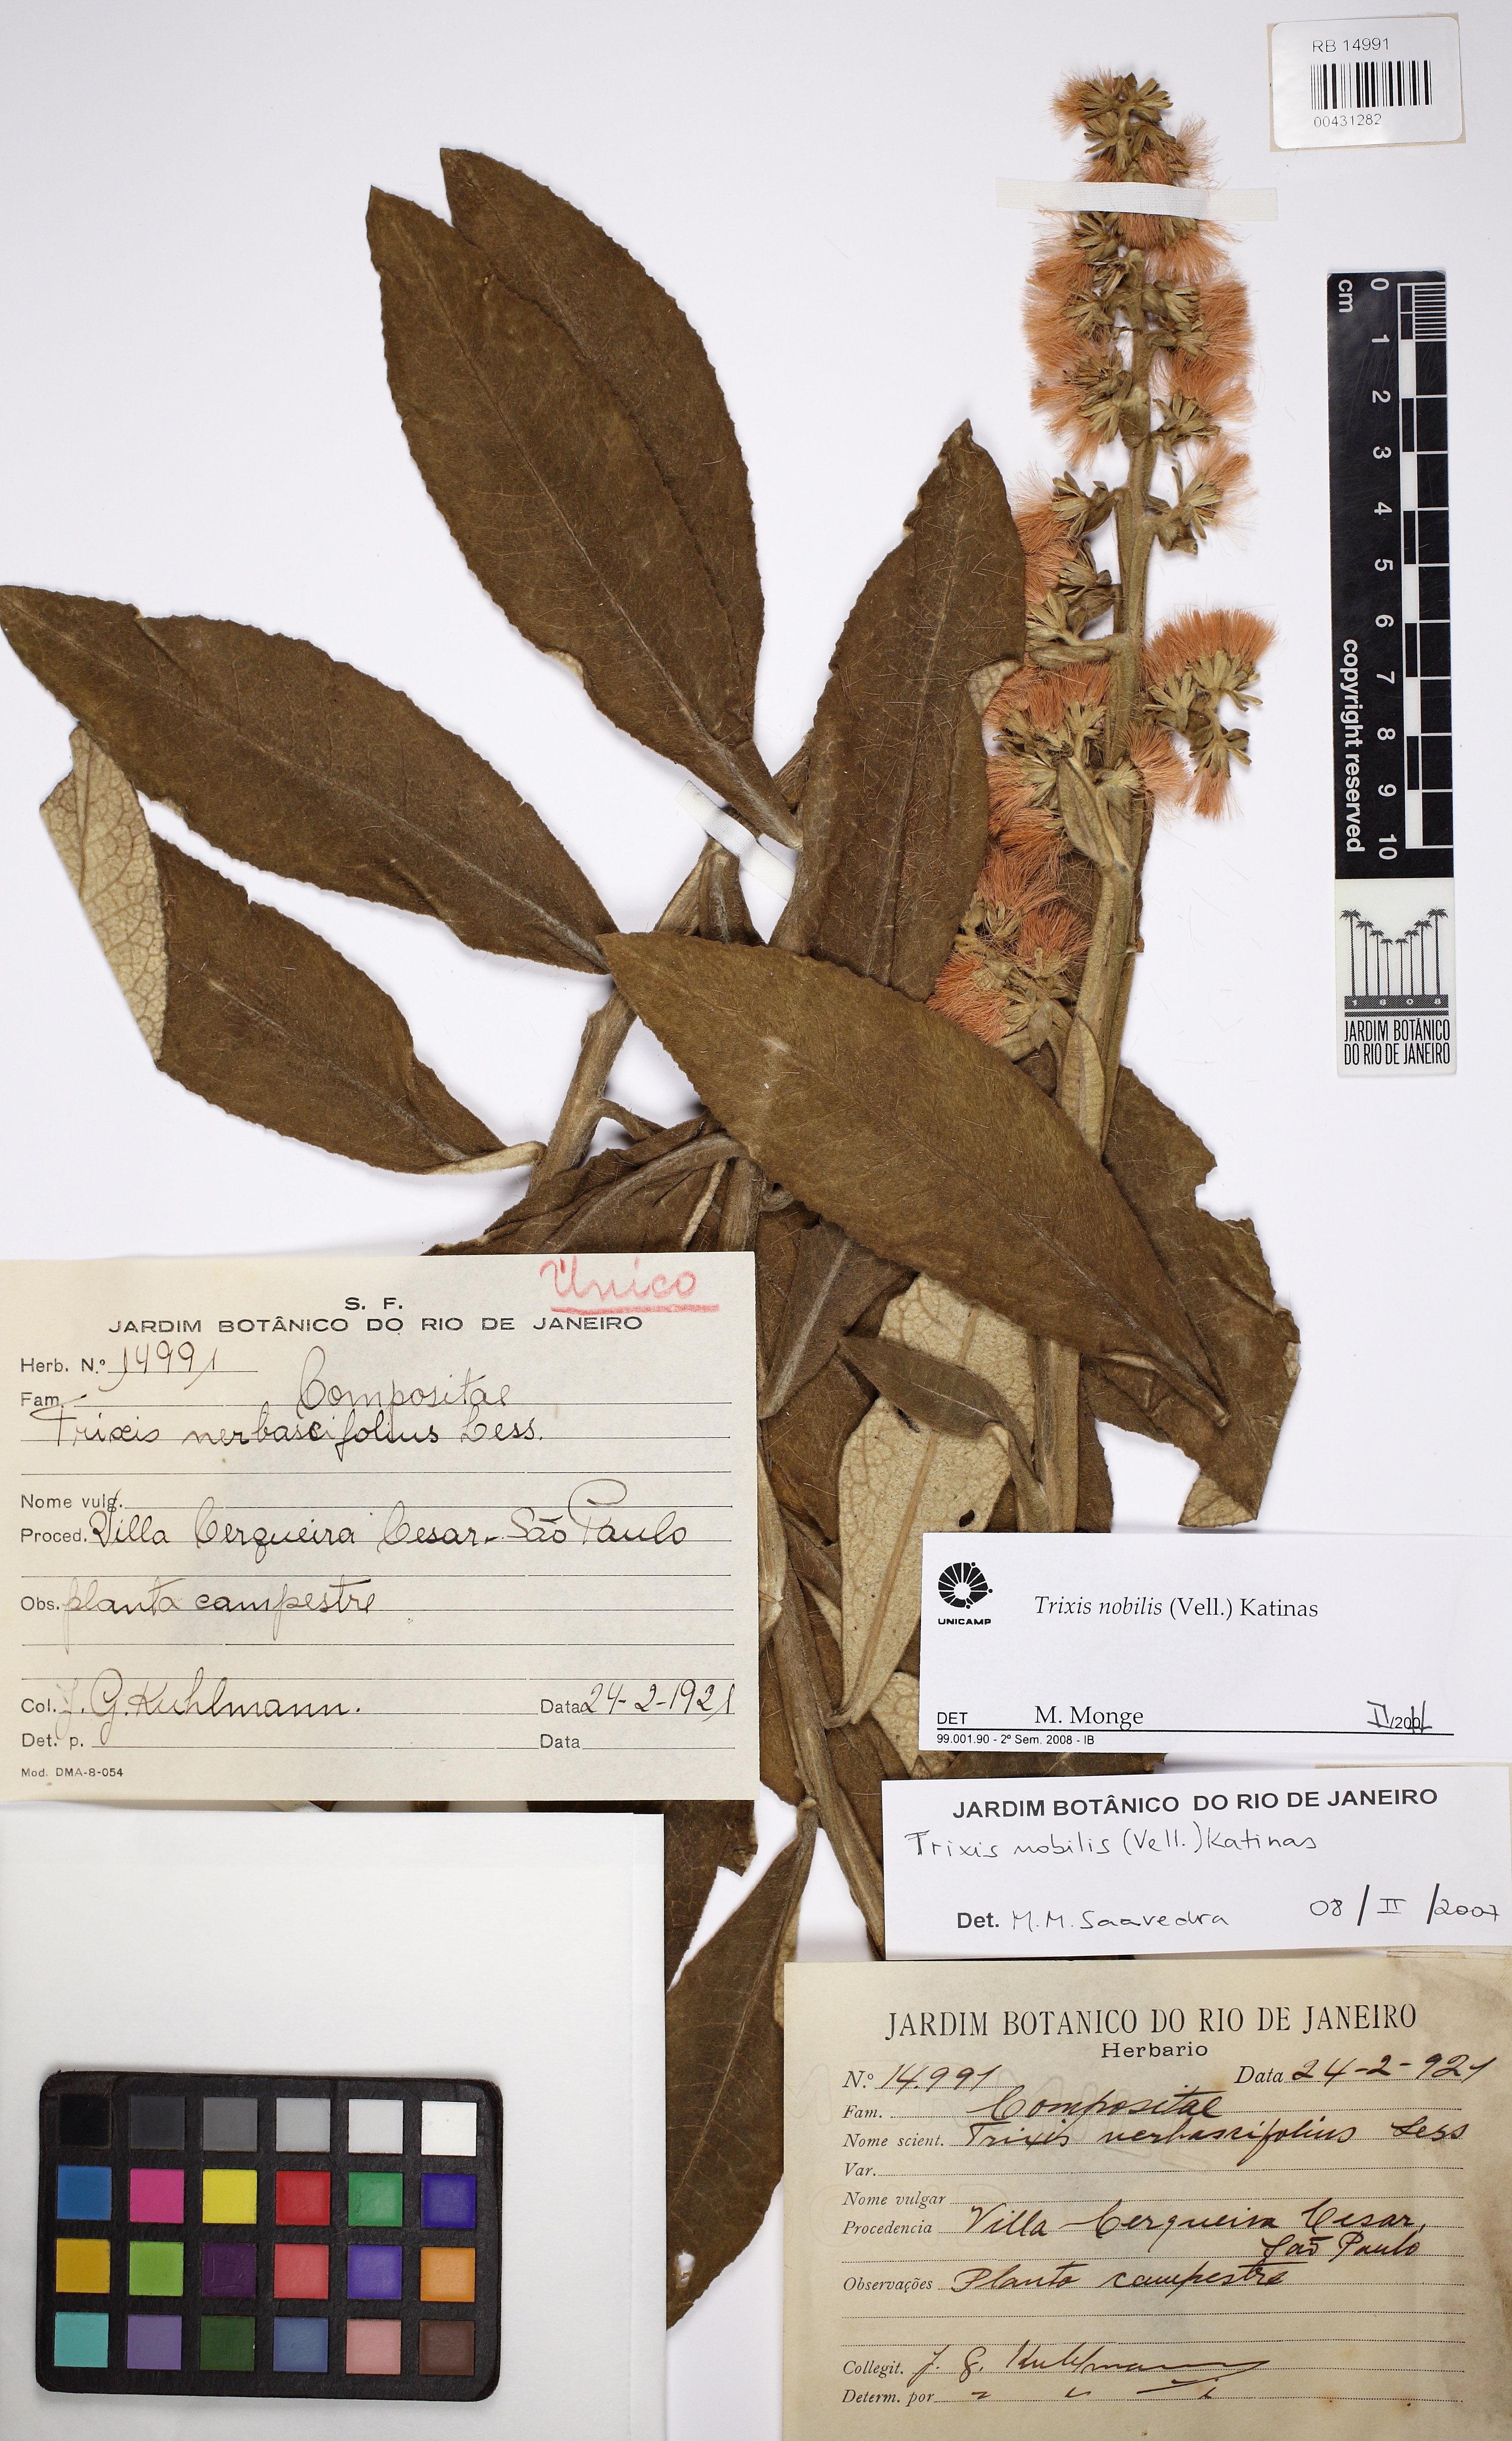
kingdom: Plantae
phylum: Tracheophyta
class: Magnoliopsida
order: Asterales
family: Asteraceae
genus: Trixis
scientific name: Trixis nobilis
